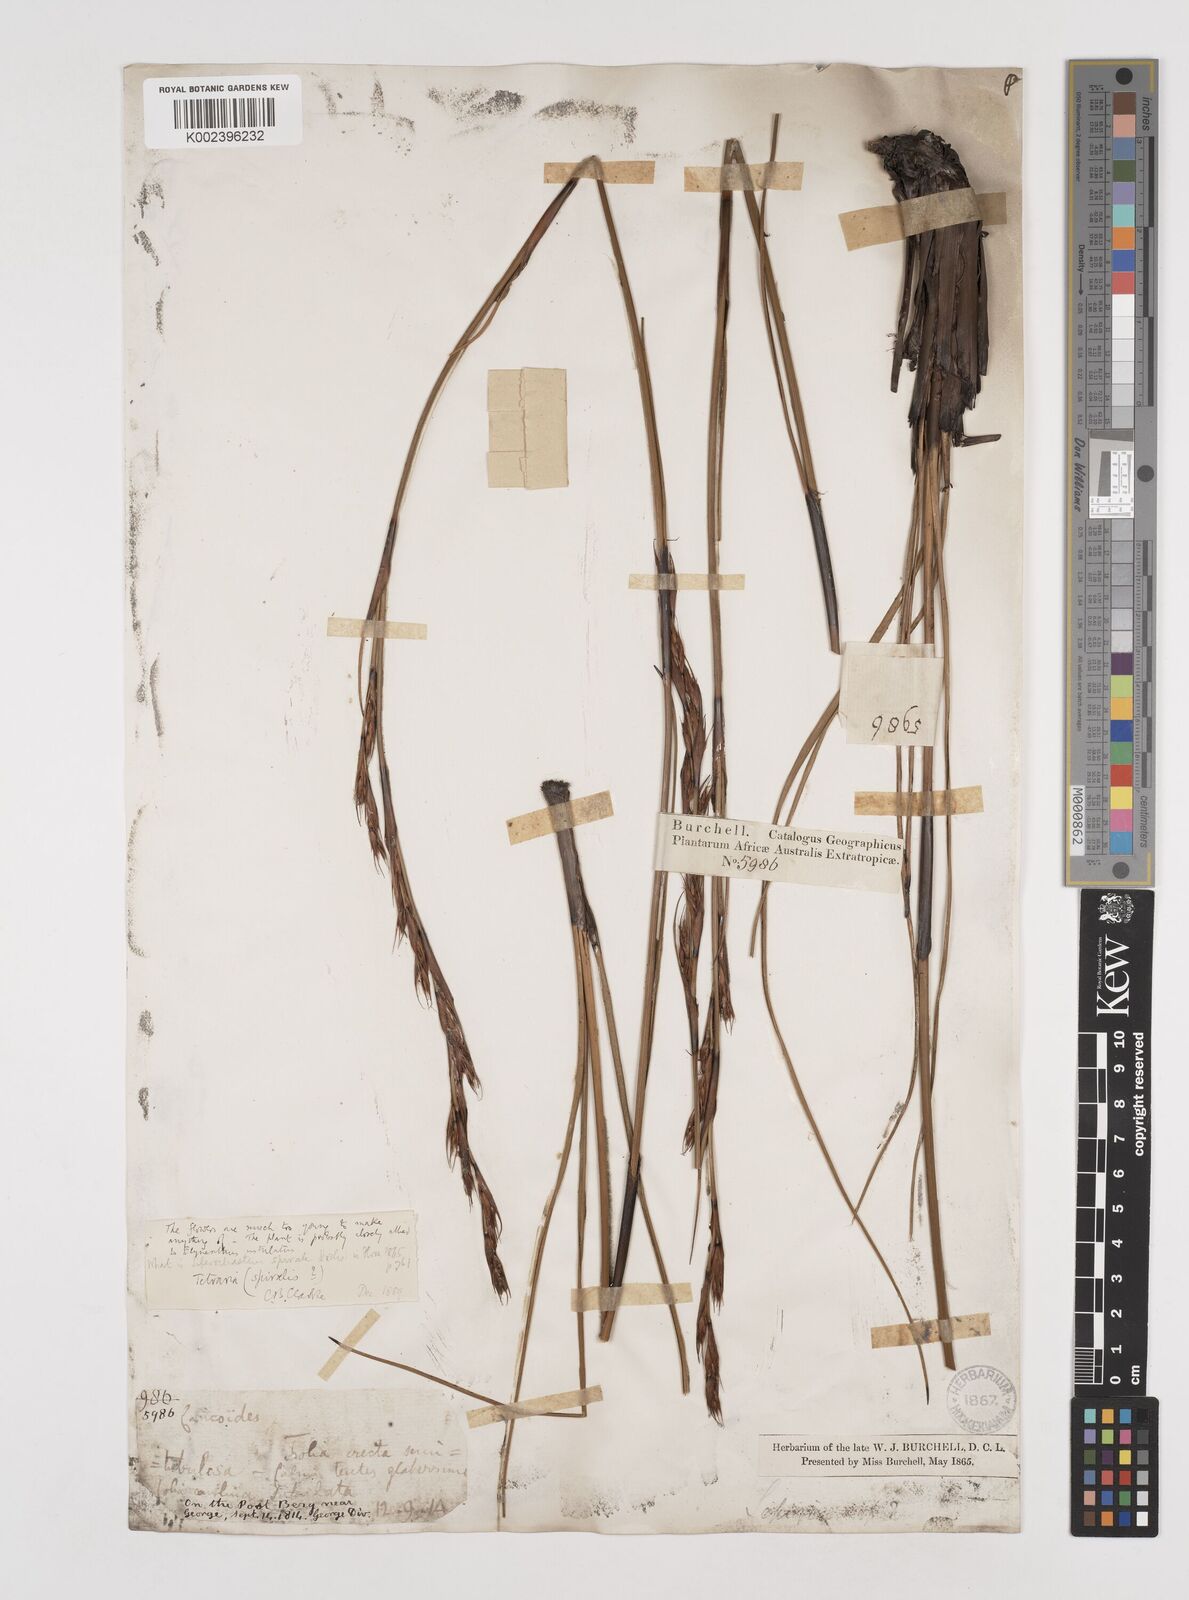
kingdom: Plantae
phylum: Tracheophyta
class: Liliopsida
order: Poales
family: Cyperaceae
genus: Tetraria
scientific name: Tetraria spiralis
